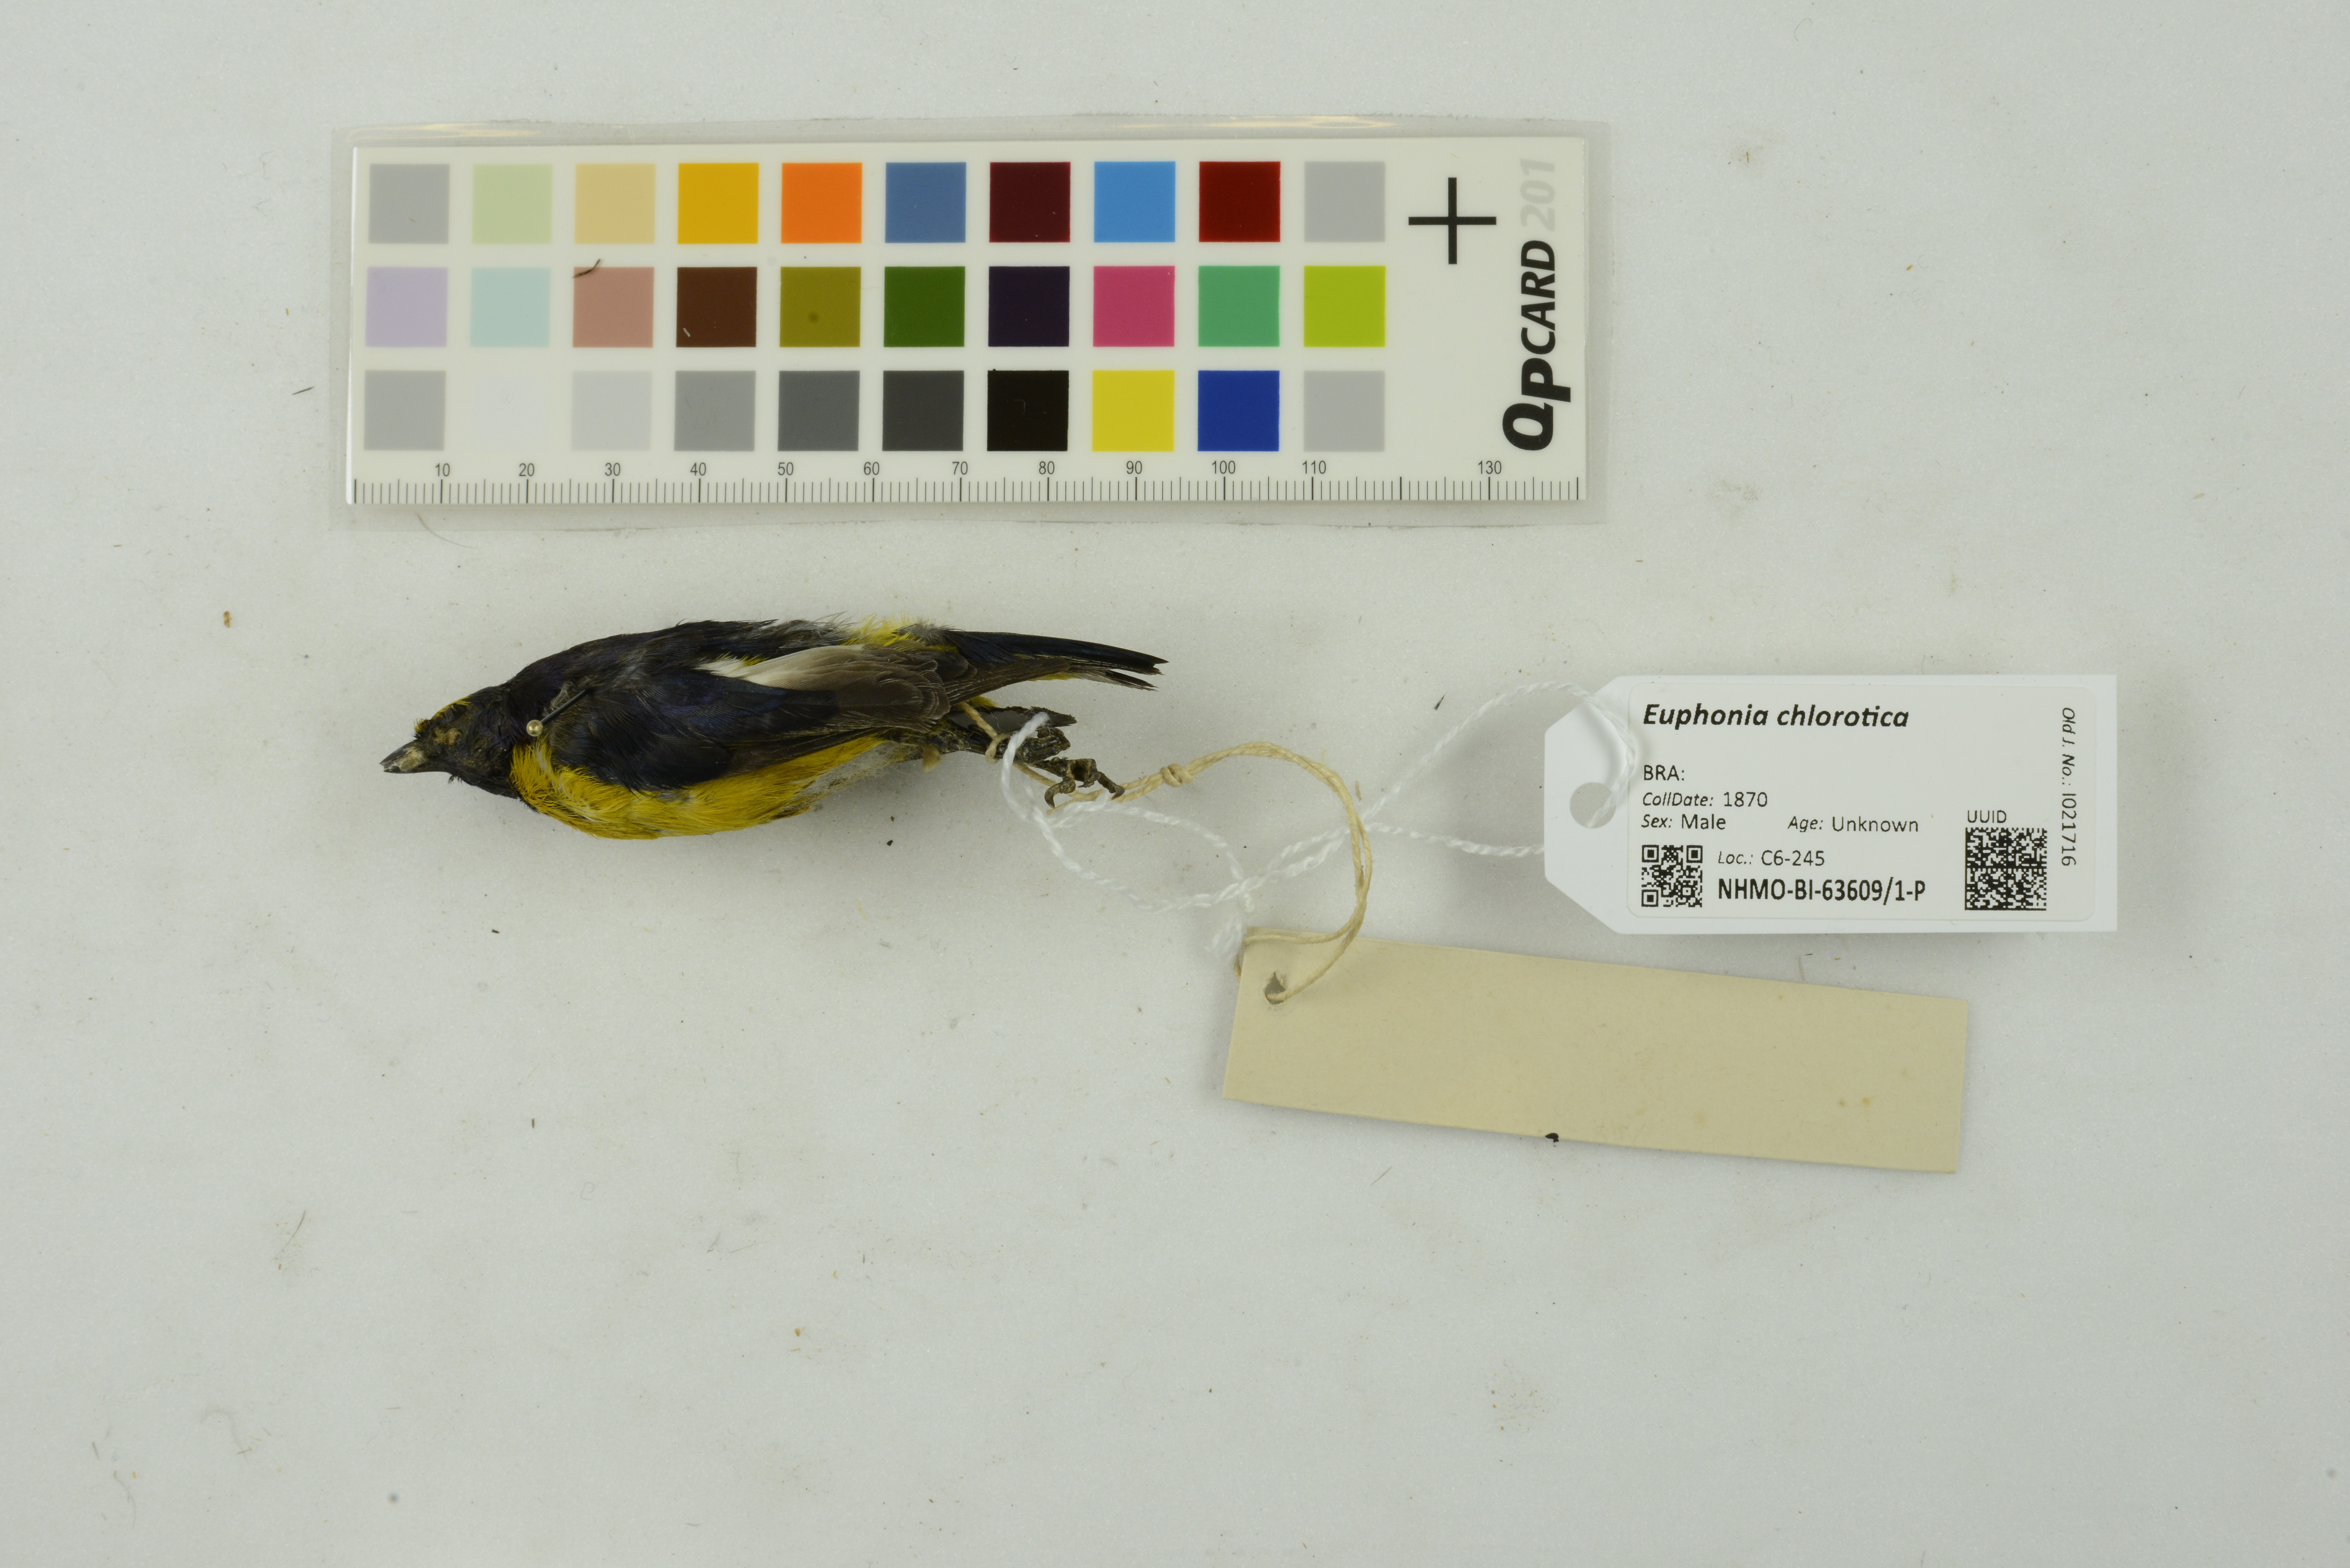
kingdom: Animalia
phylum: Chordata
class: Aves
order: Passeriformes
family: Fringillidae
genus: Euphonia
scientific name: Euphonia chlorotica
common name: Purple-throated euphonia
